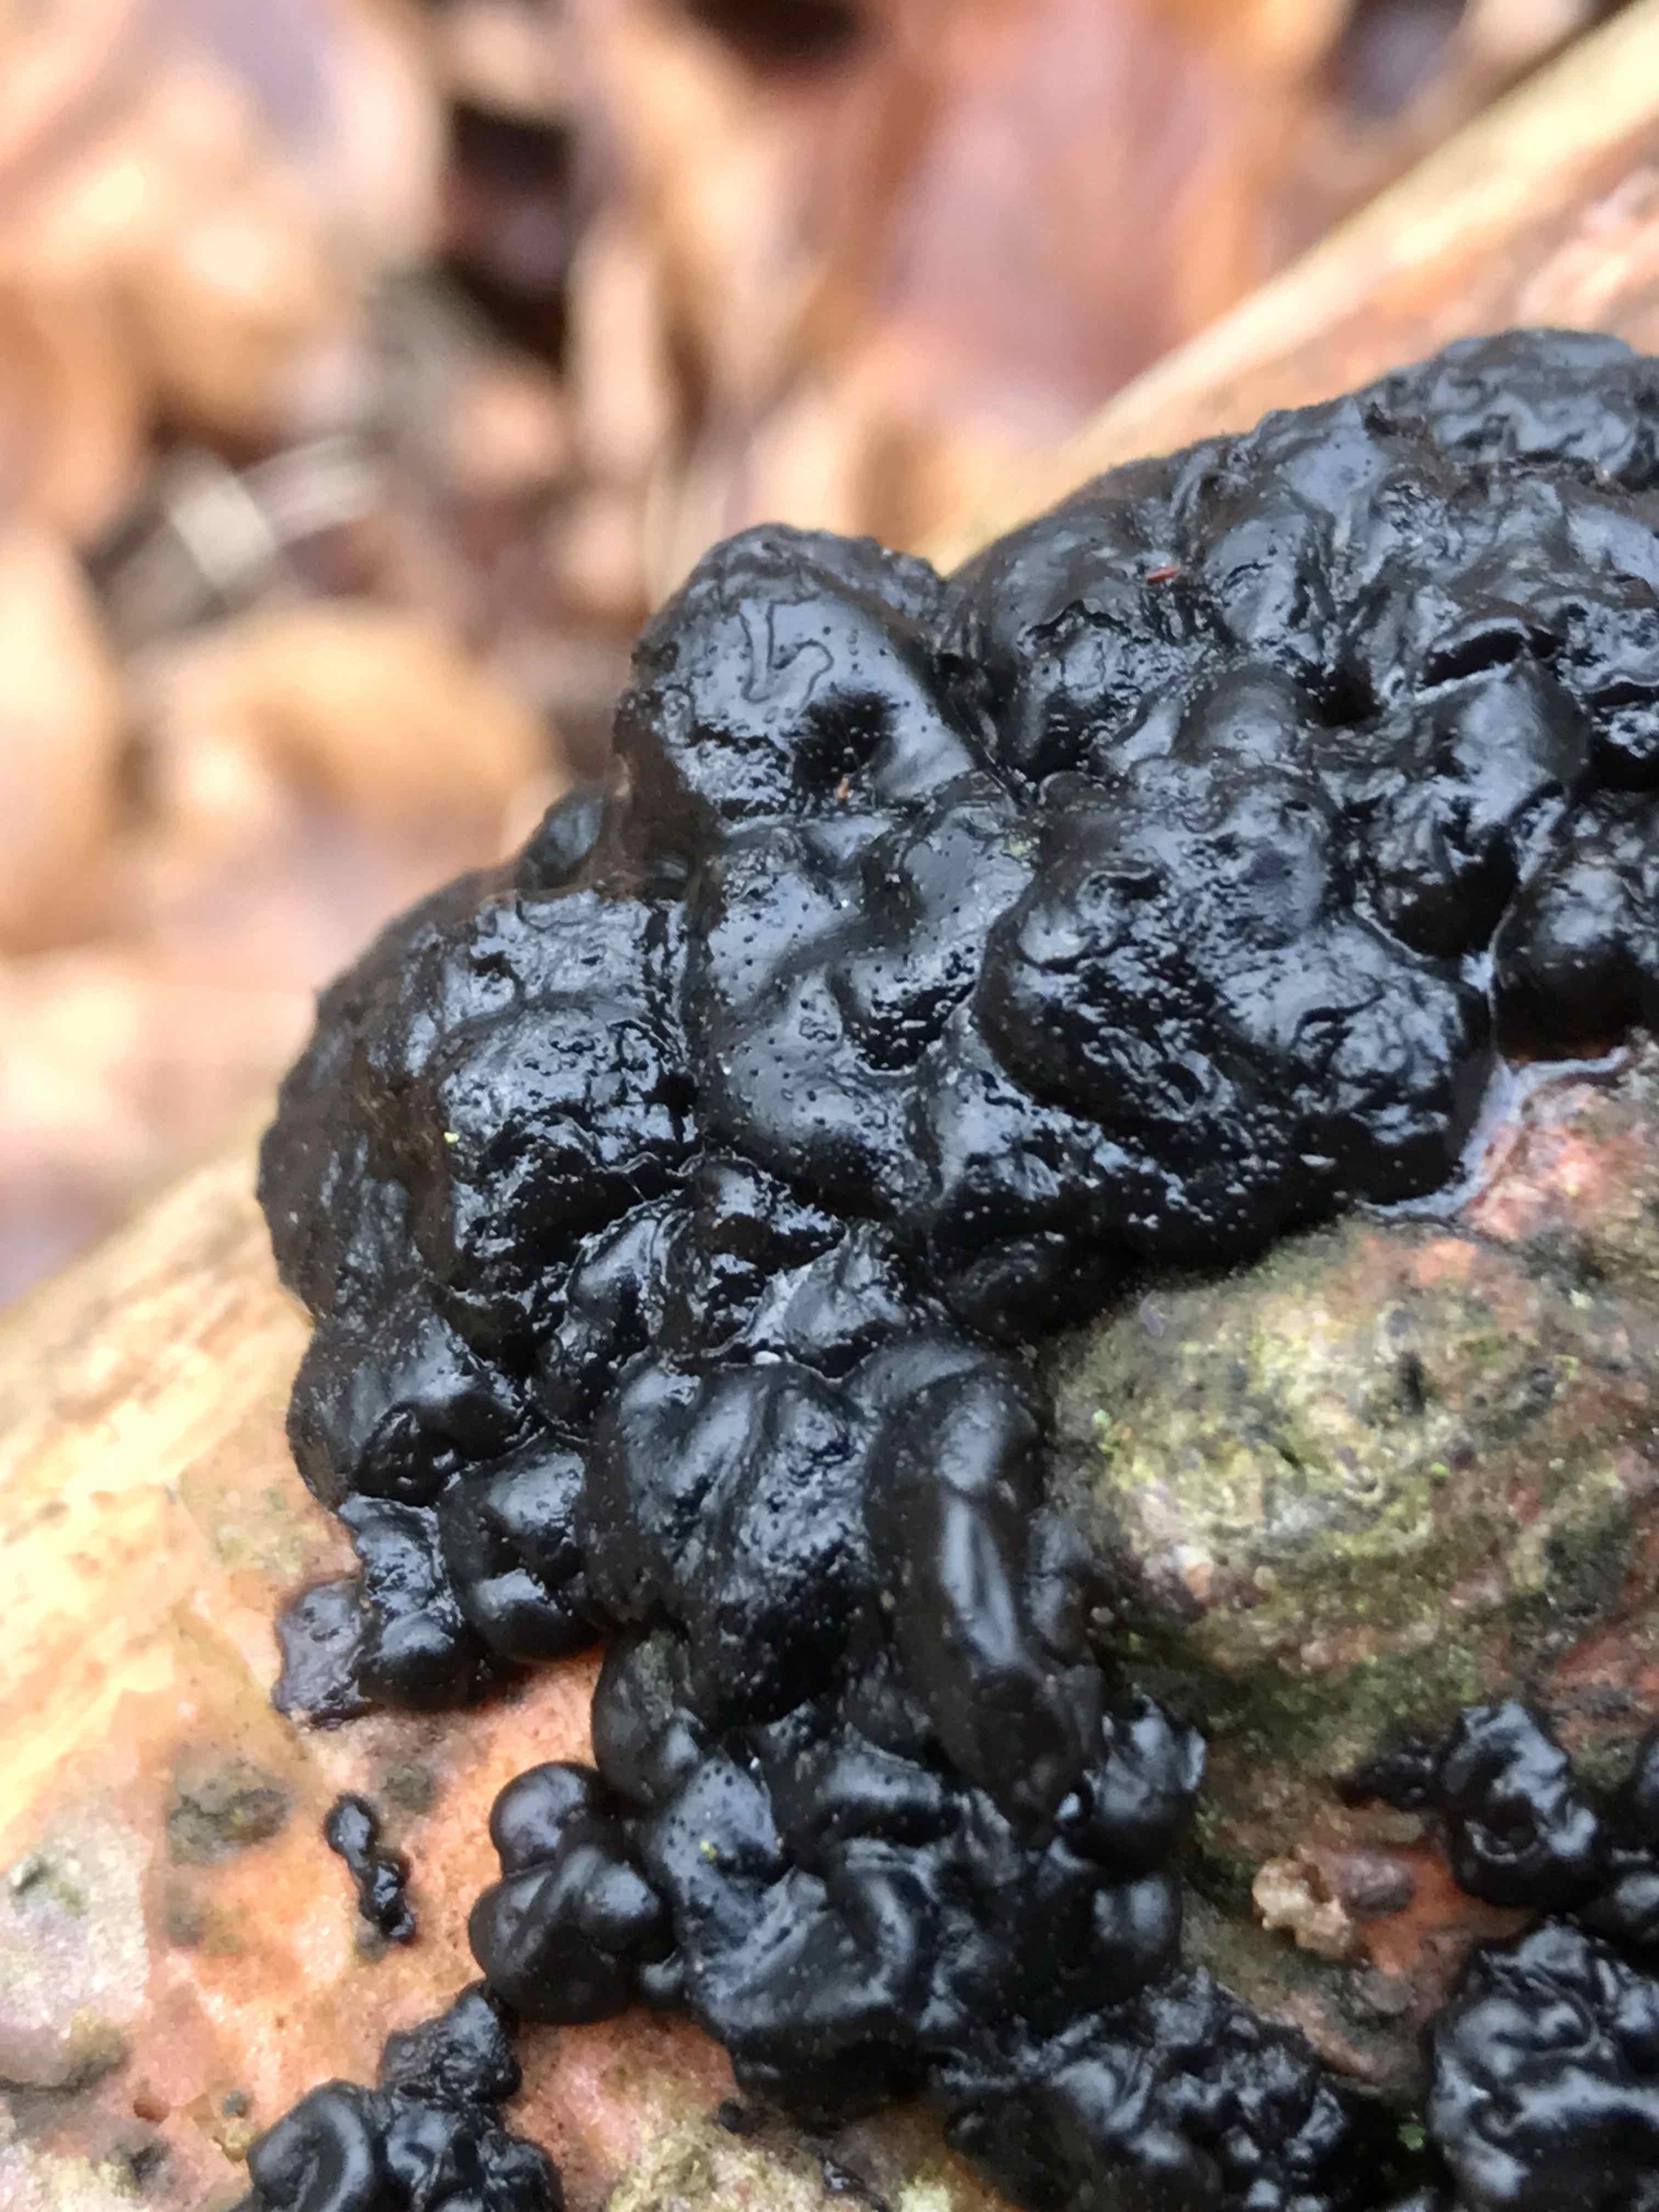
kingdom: Fungi
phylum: Basidiomycota
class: Agaricomycetes
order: Auriculariales
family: Auriculariaceae
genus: Exidia
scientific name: Exidia nigricans
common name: almindelig bævretop
